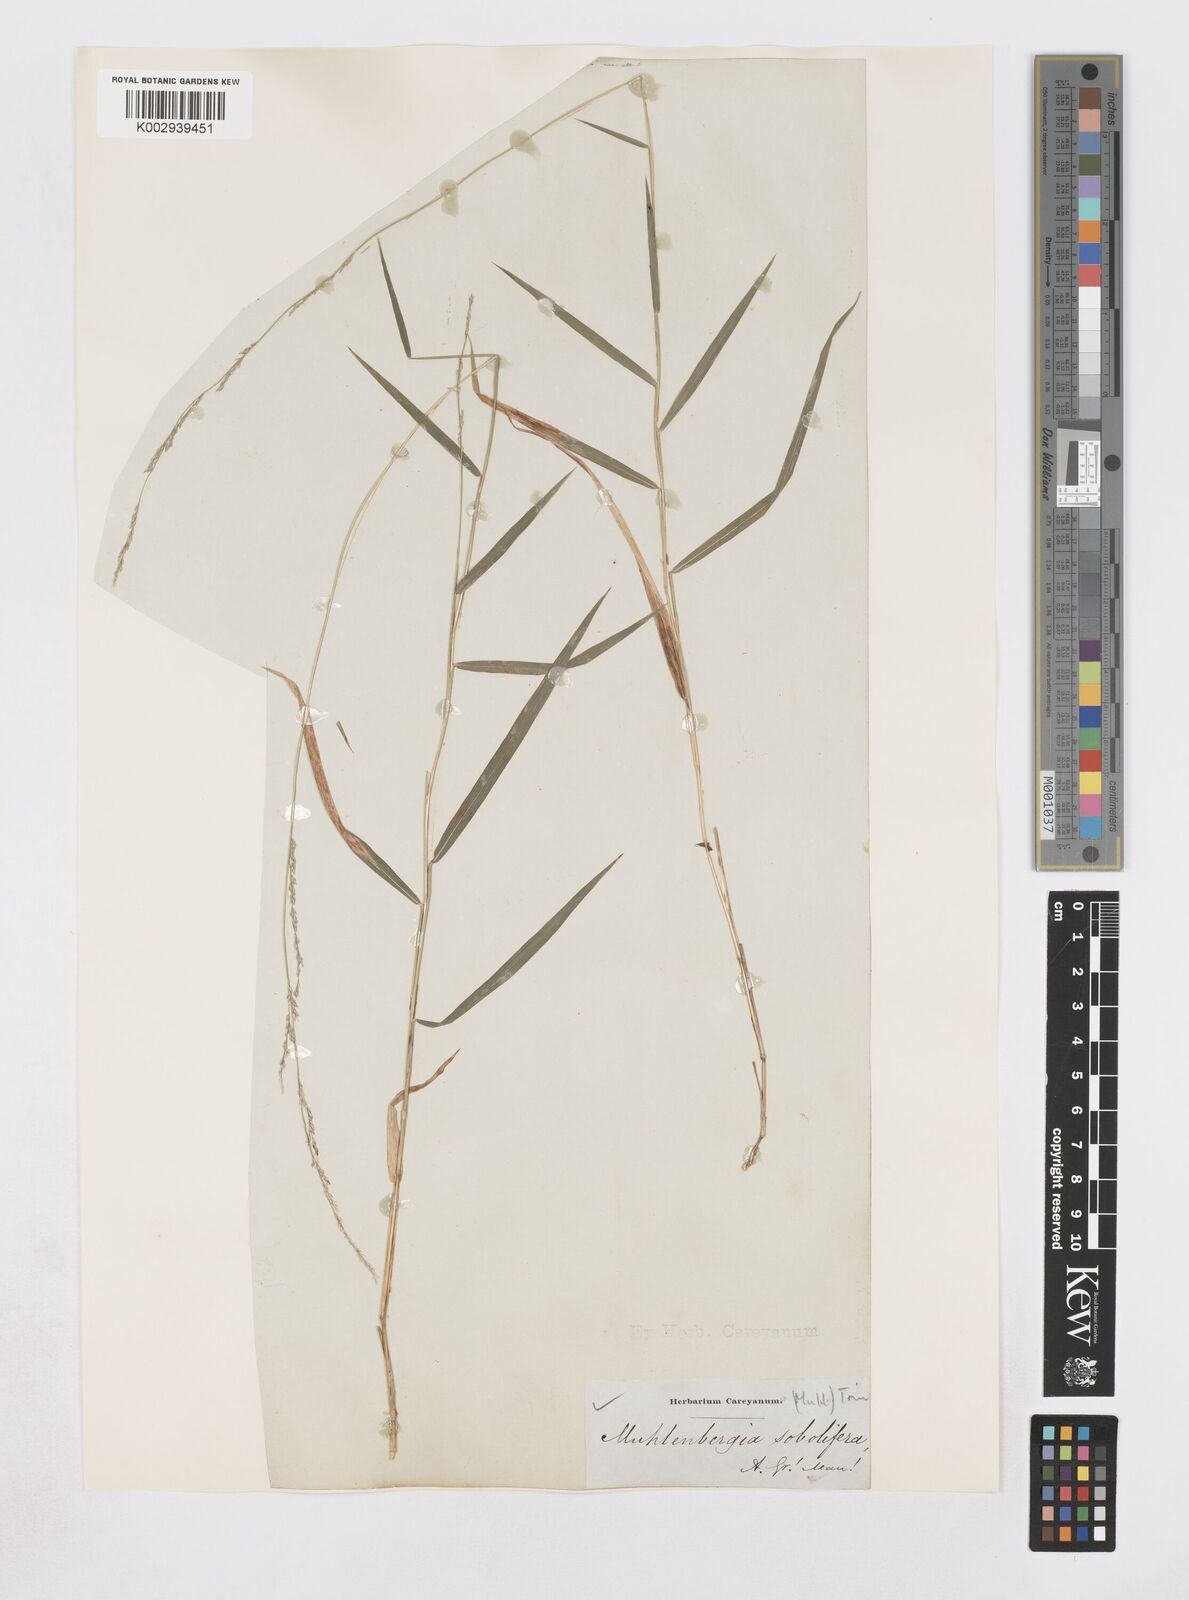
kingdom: Plantae
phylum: Tracheophyta
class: Liliopsida
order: Poales
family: Poaceae
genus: Muhlenbergia
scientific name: Muhlenbergia sobolifera
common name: Creeping muhly
